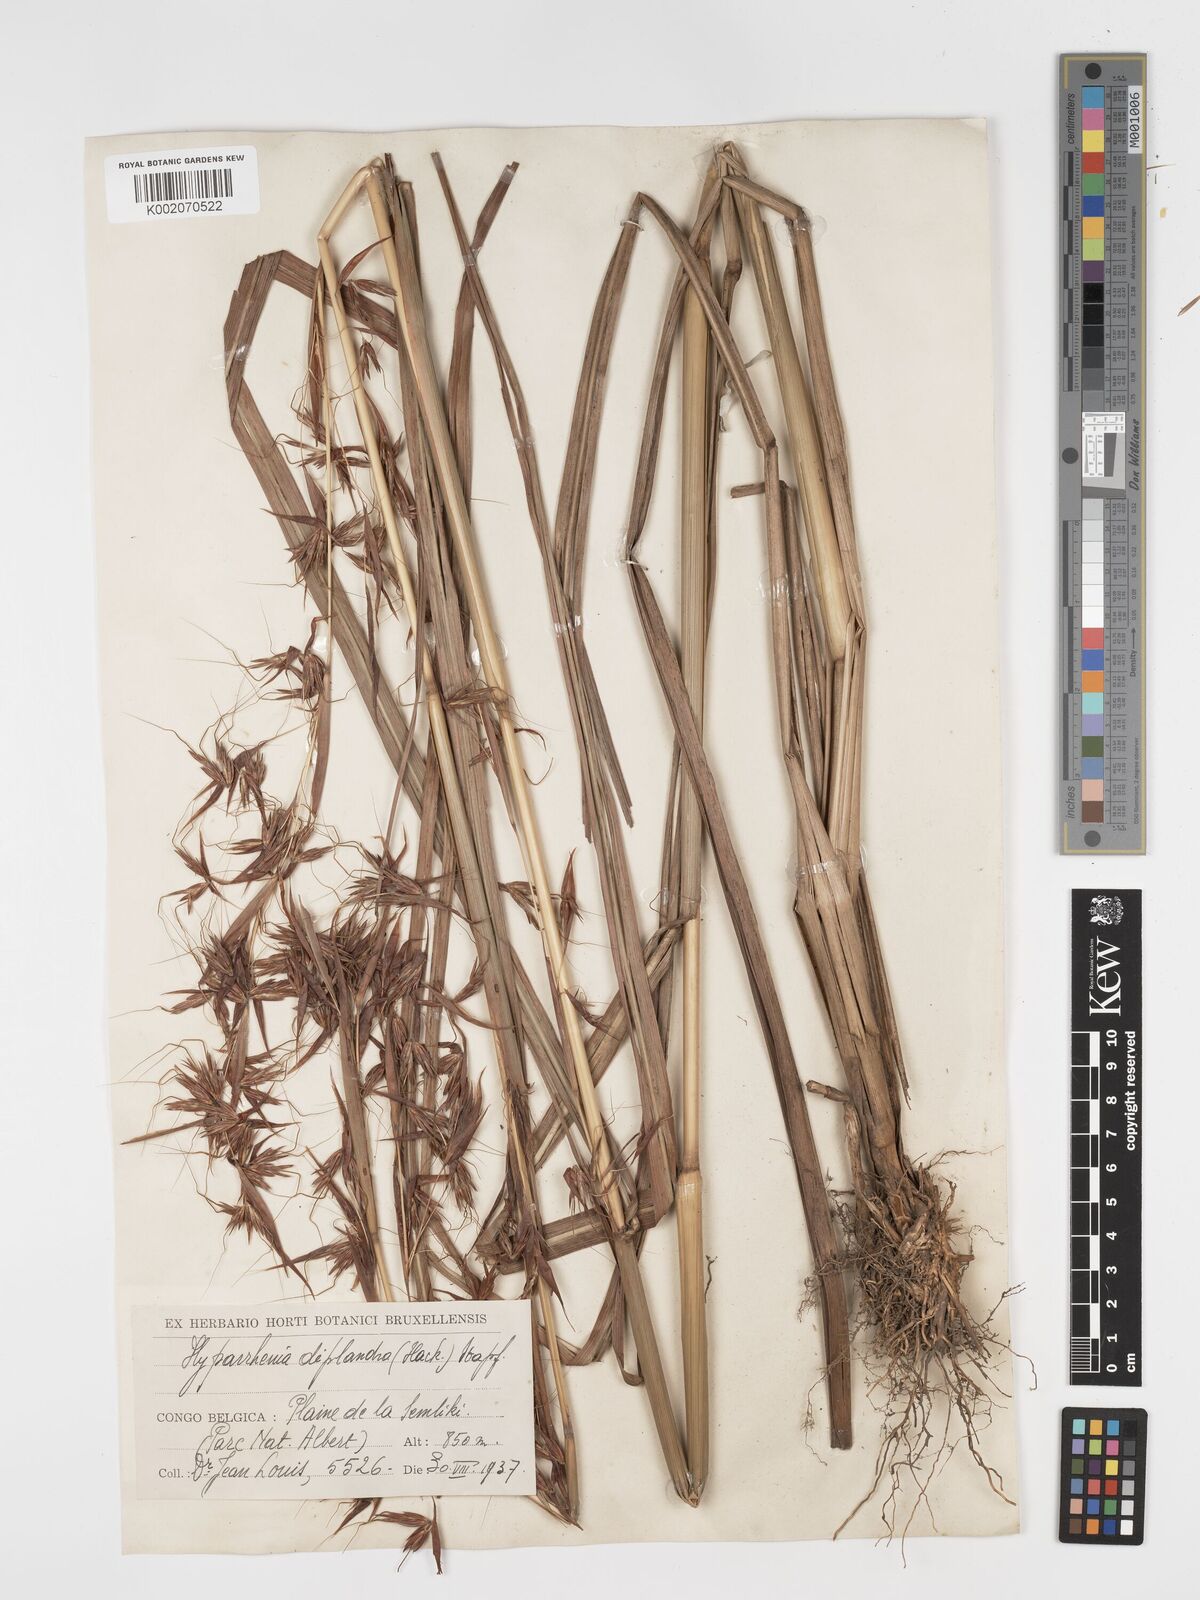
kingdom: Plantae
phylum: Tracheophyta
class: Liliopsida
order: Poales
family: Poaceae
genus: Hyparrhenia
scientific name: Hyparrhenia diplandra
